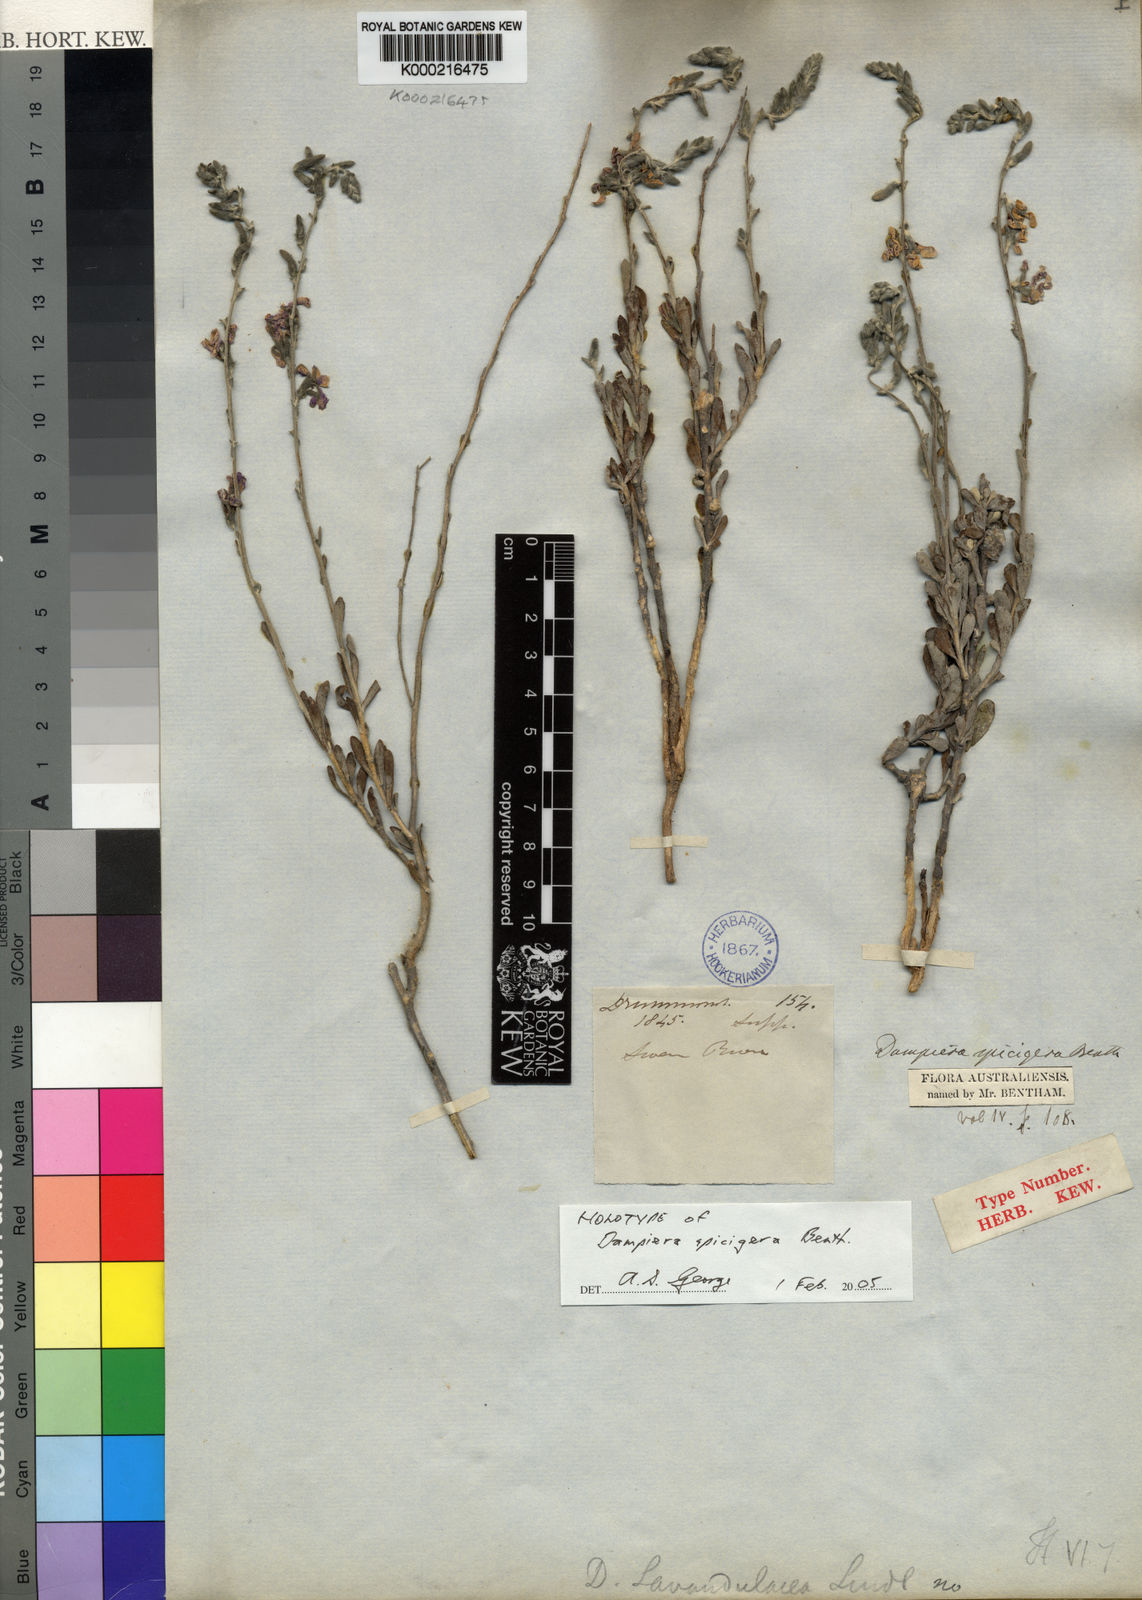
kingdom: Plantae
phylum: Tracheophyta
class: Magnoliopsida
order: Asterales
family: Goodeniaceae
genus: Dampiera
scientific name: Dampiera spicigera
